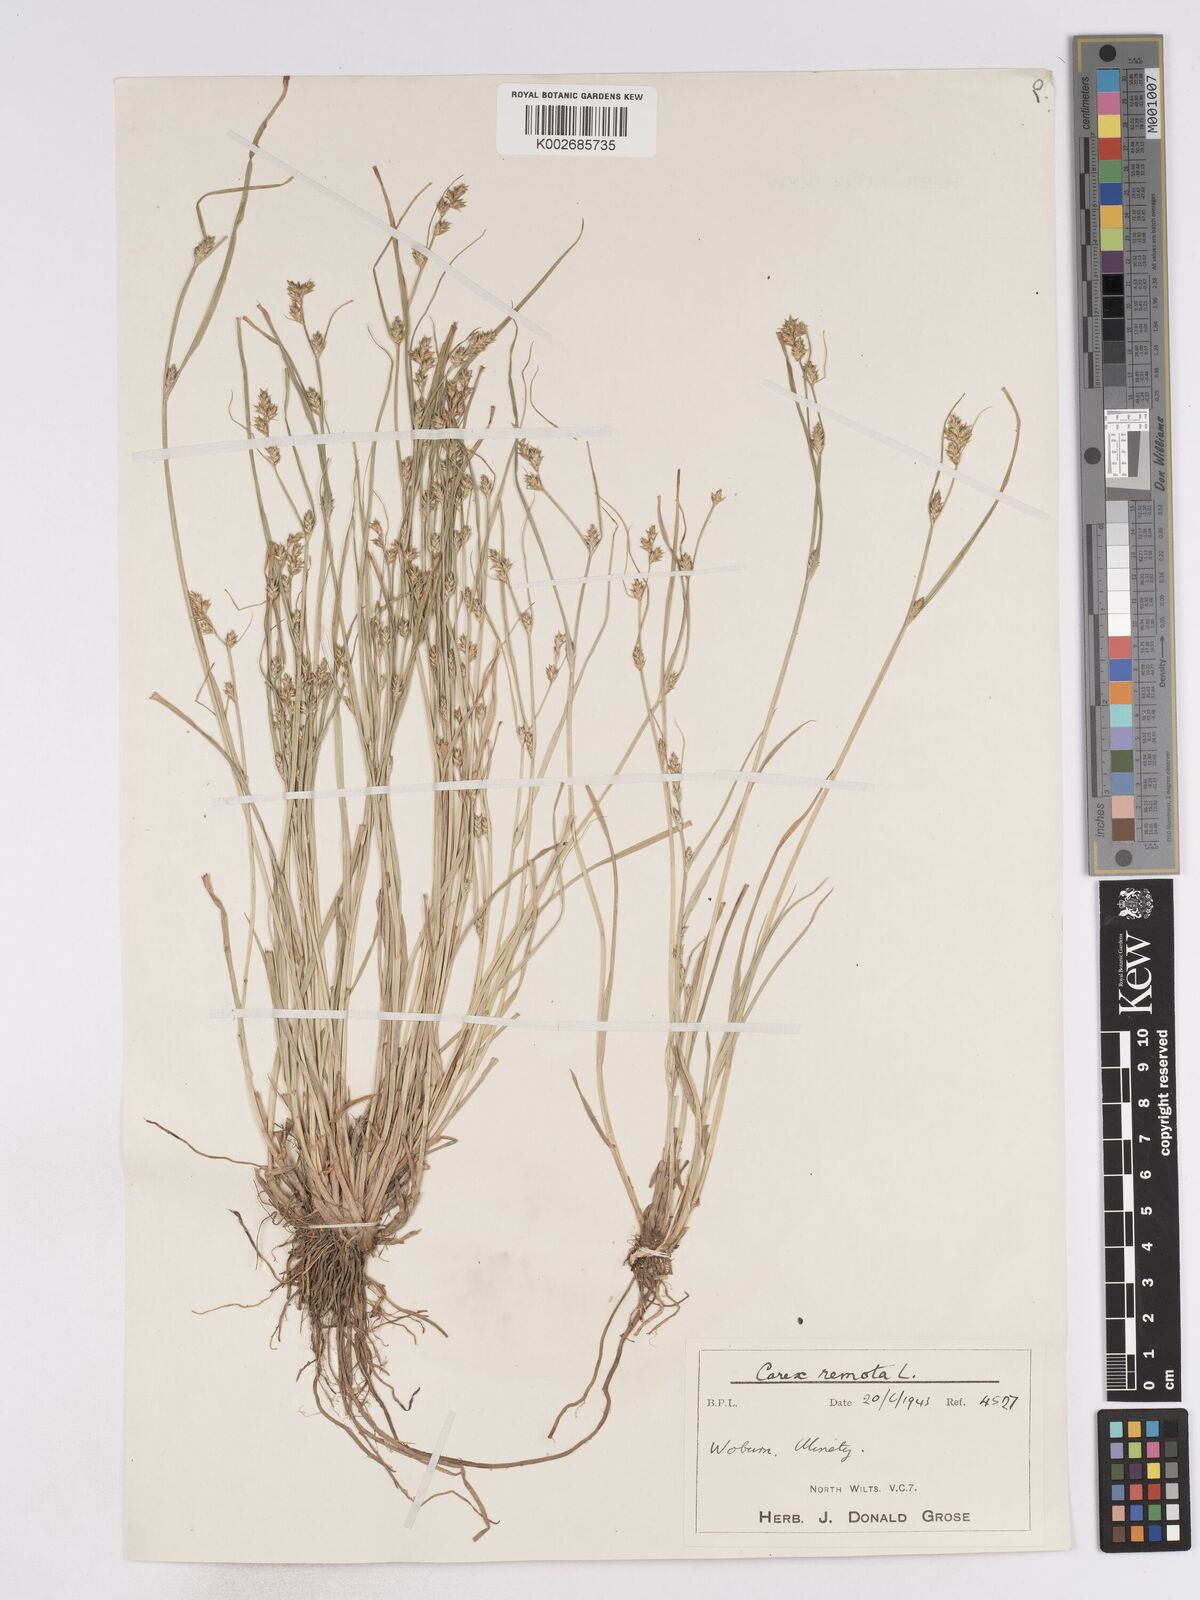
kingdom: Plantae
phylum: Tracheophyta
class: Liliopsida
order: Poales
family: Cyperaceae
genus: Carex
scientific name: Carex remota
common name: Remote sedge
